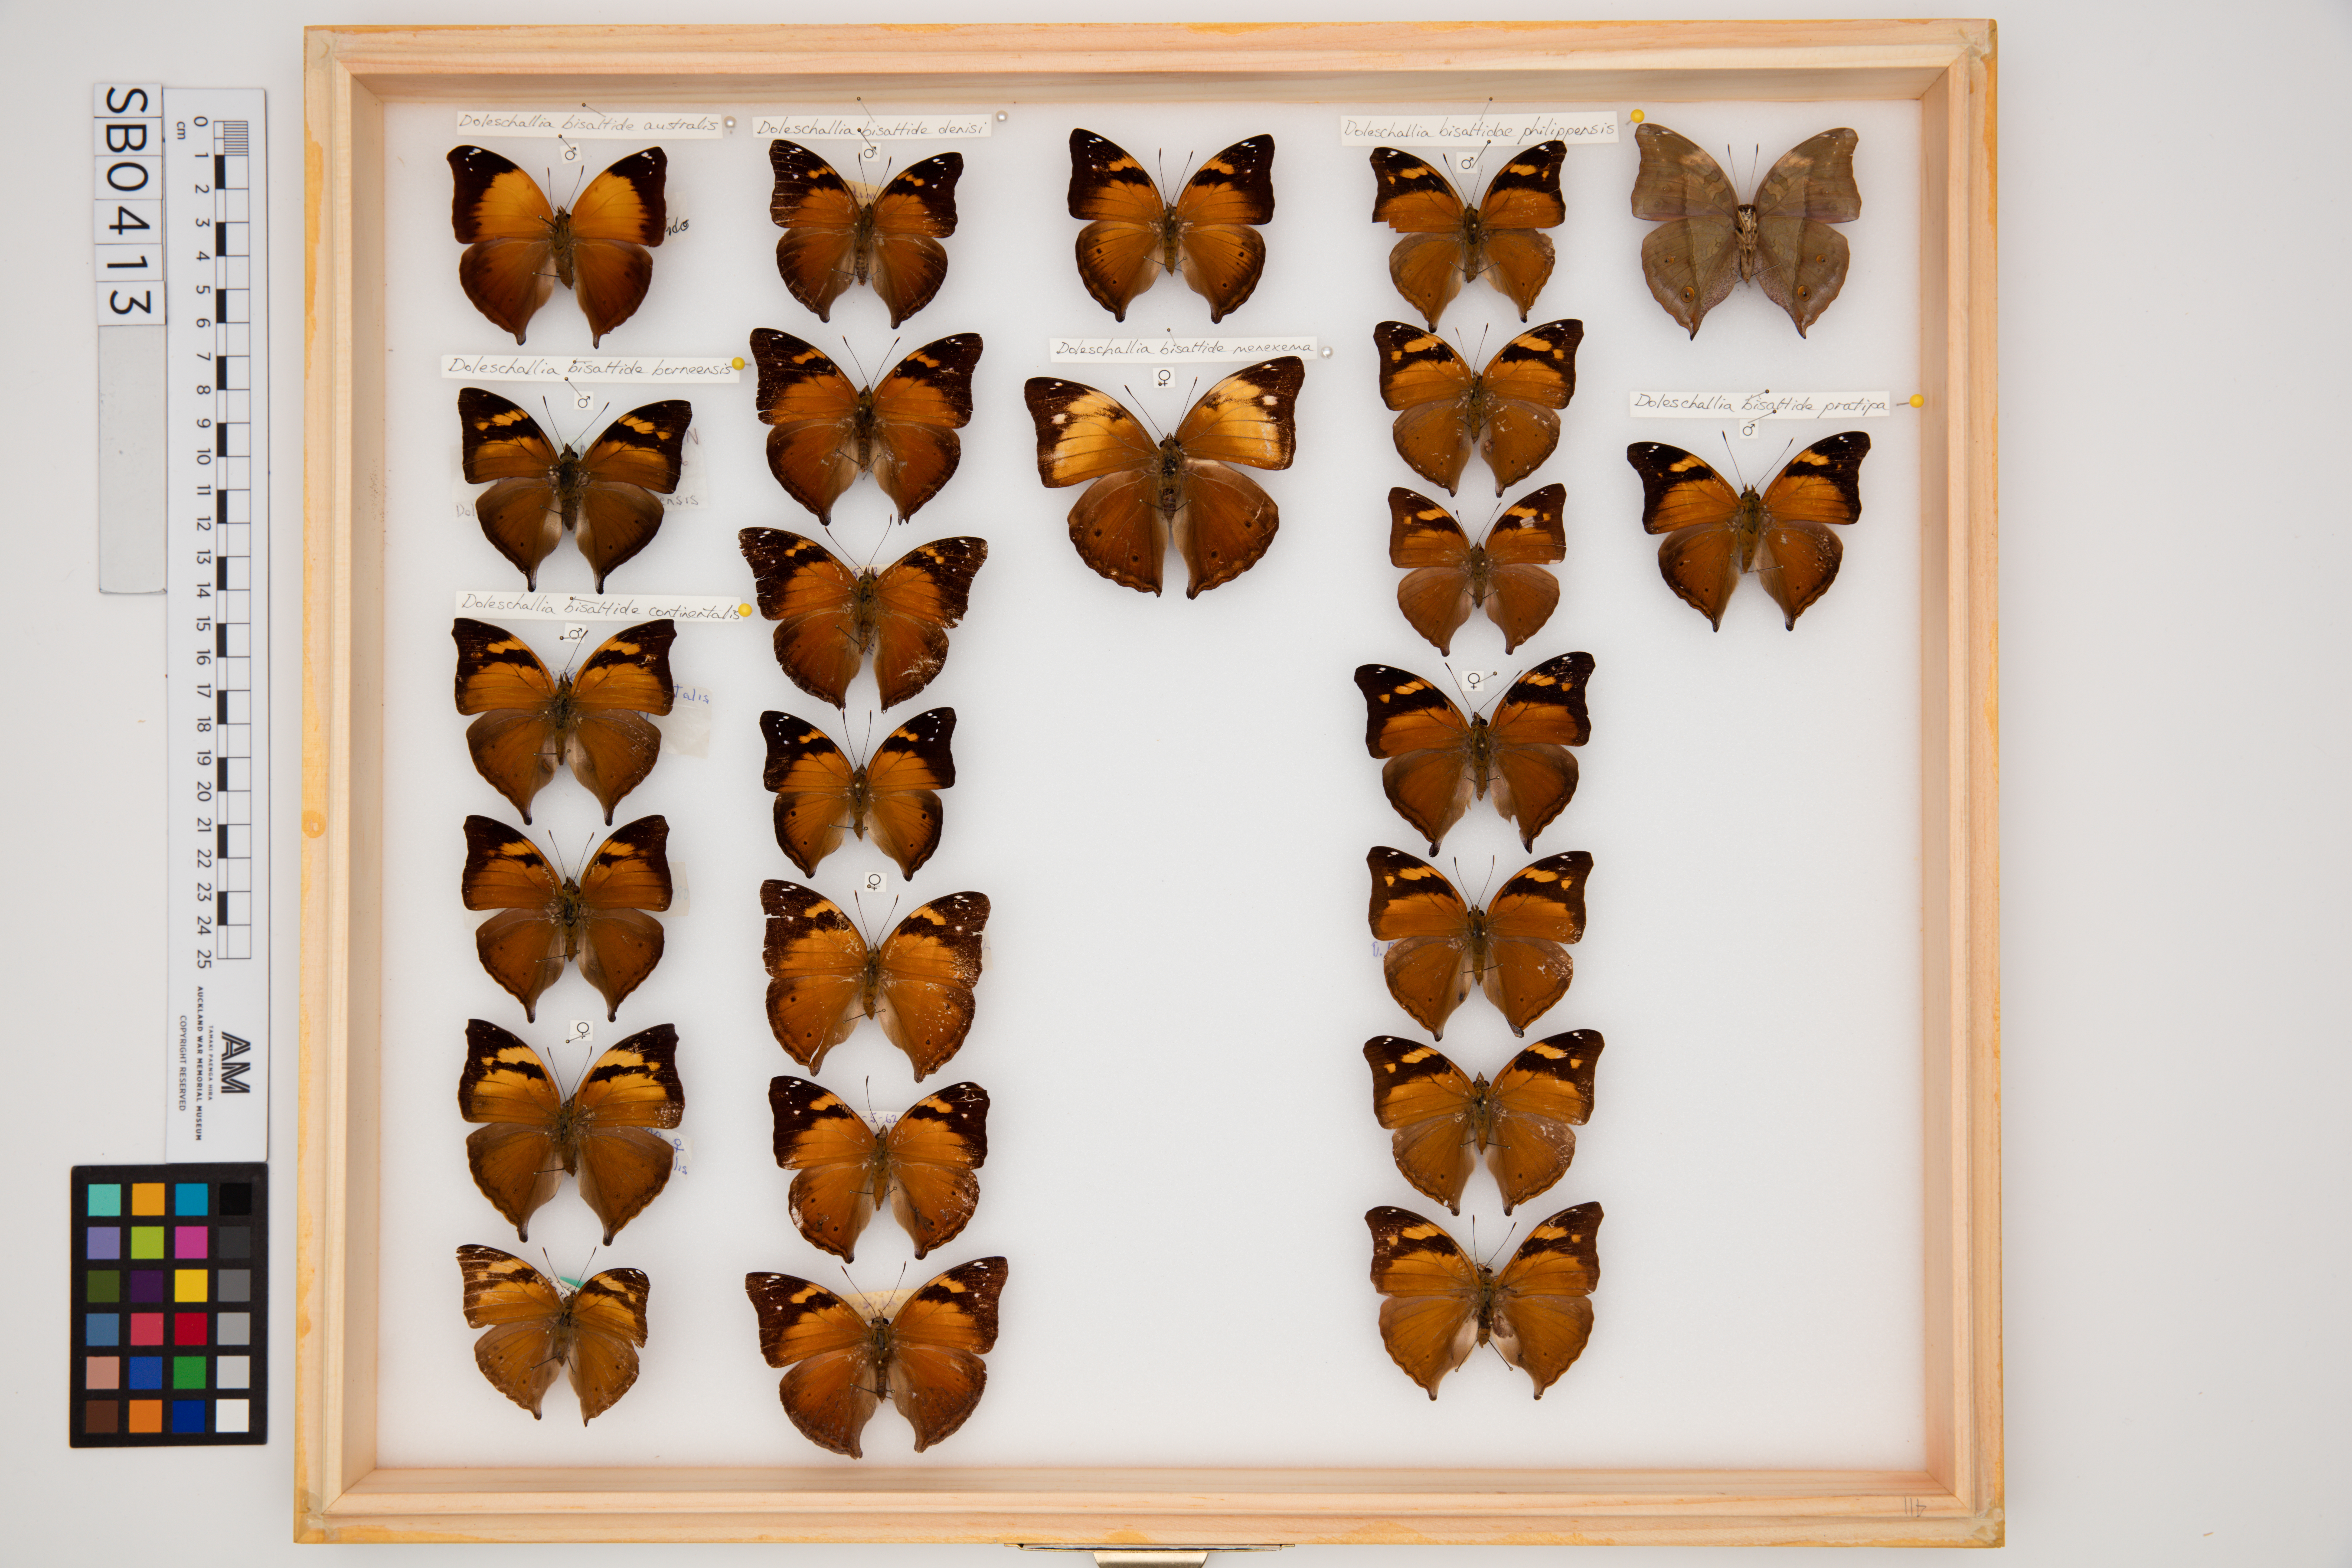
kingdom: Animalia
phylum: Arthropoda
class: Insecta
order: Lepidoptera
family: Nymphalidae
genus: Doleschallia
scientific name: Doleschallia bisaltide
